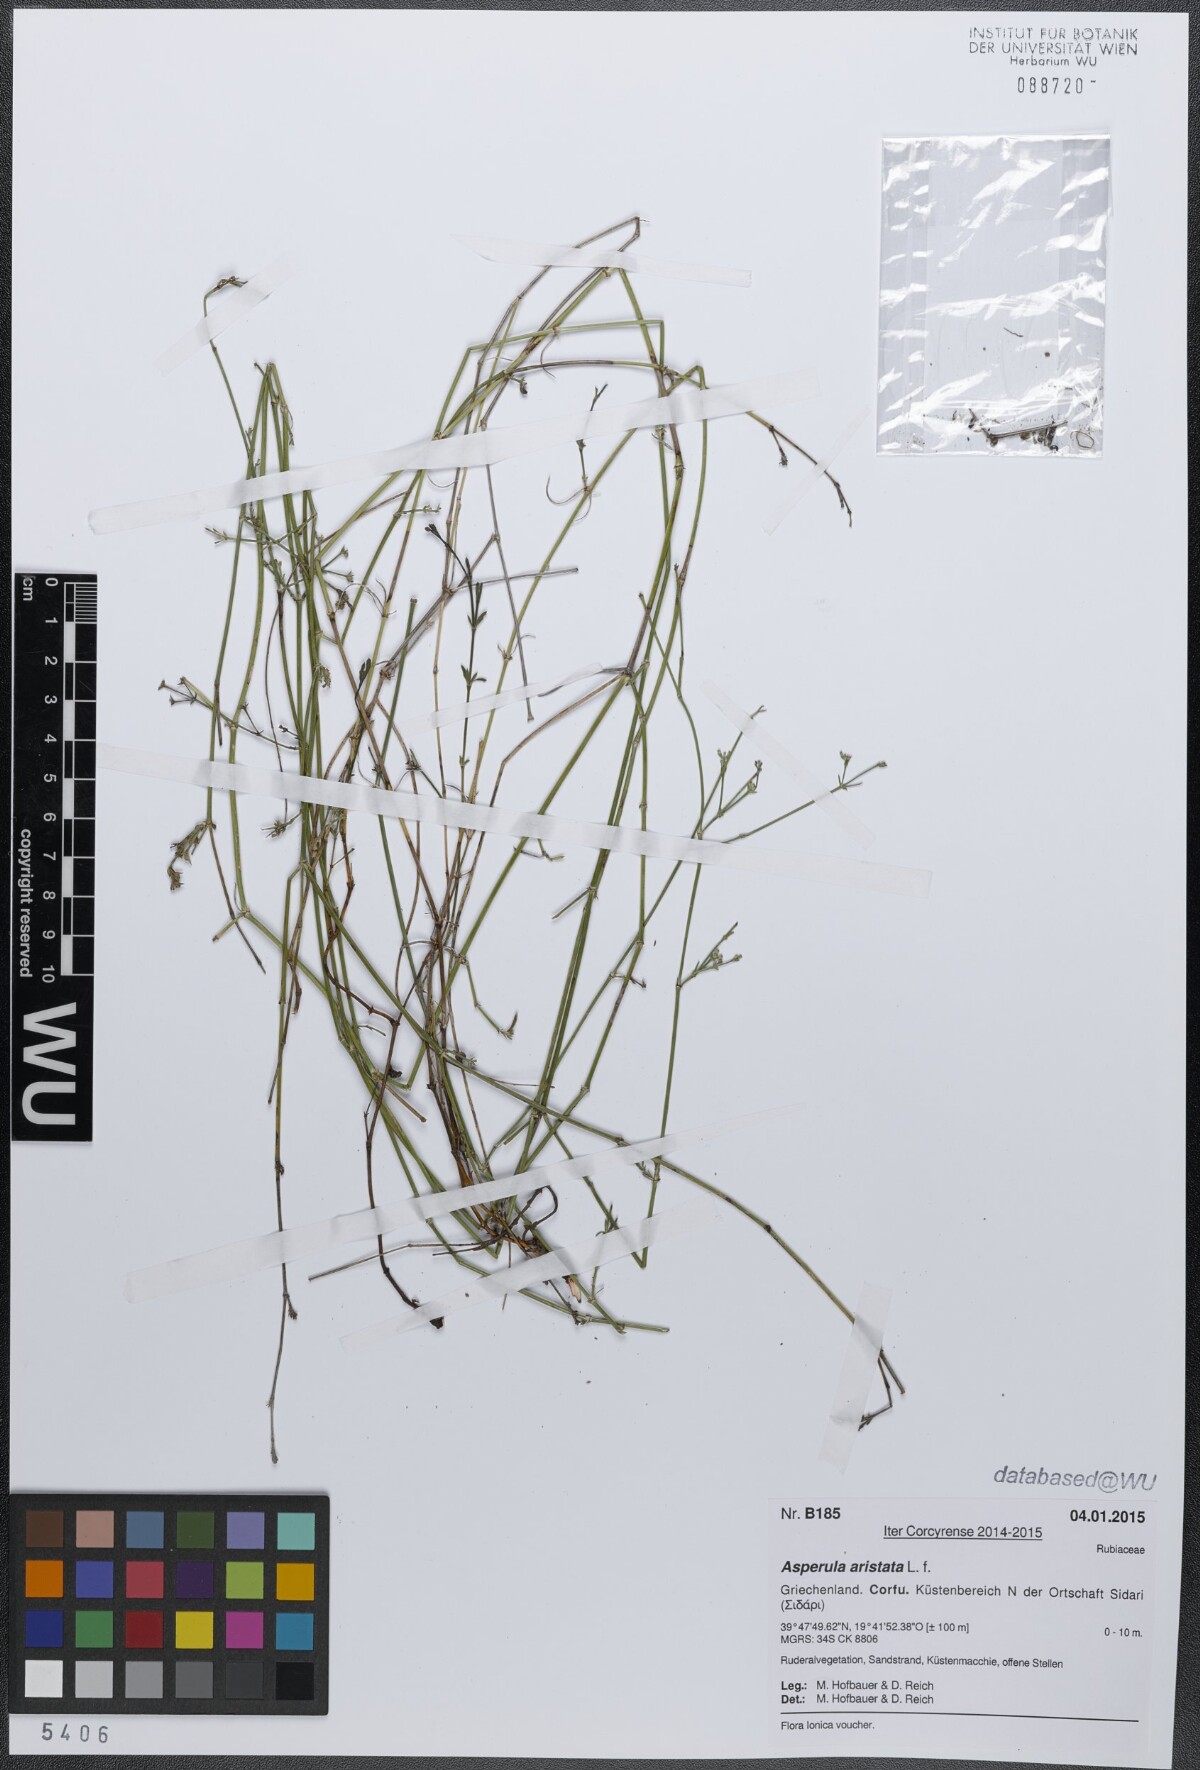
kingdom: Plantae
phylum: Tracheophyta
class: Magnoliopsida
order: Gentianales
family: Rubiaceae
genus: Cynanchica
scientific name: Cynanchica aristata
